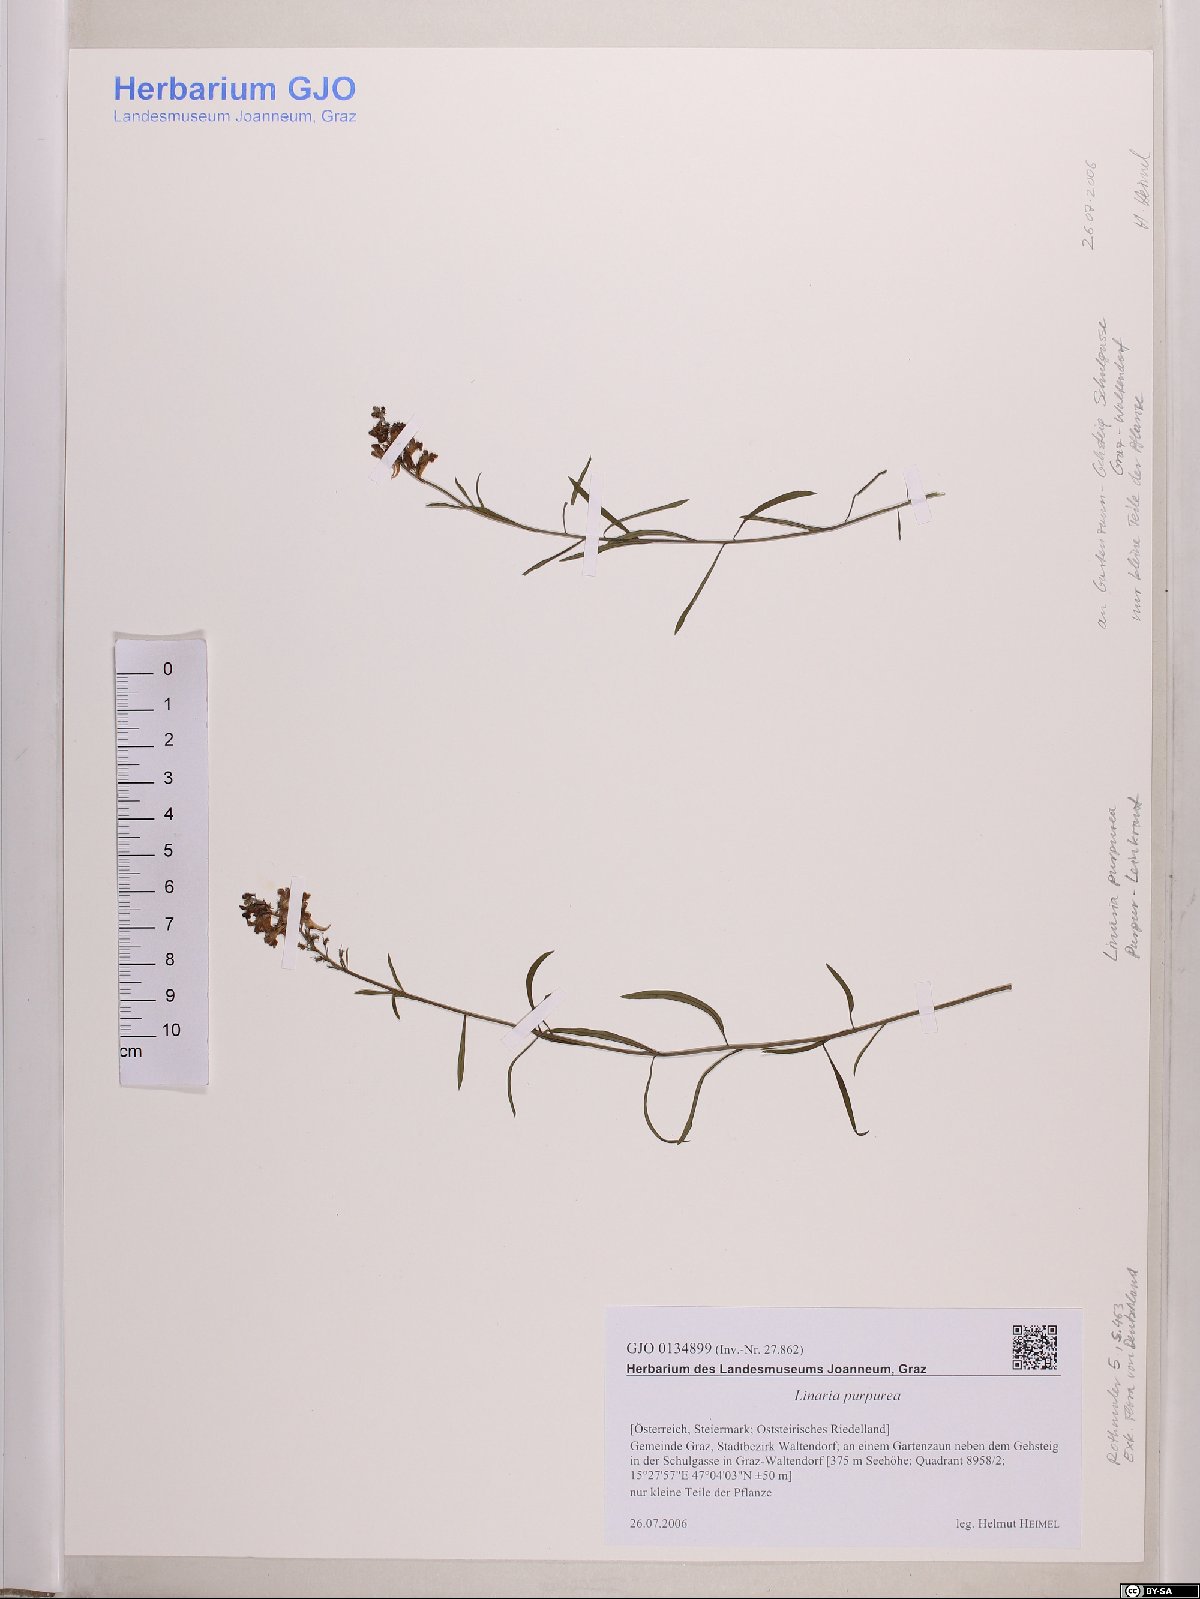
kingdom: Plantae
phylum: Tracheophyta
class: Magnoliopsida
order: Lamiales
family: Plantaginaceae
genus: Linaria
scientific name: Linaria purpurea
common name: Purple toadflax
